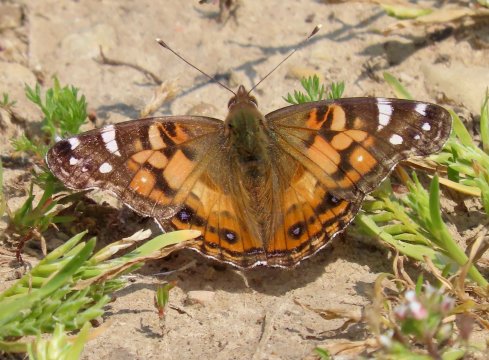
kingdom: Animalia
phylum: Arthropoda
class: Insecta
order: Lepidoptera
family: Nymphalidae
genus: Vanessa
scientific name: Vanessa virginiensis
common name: American Lady
